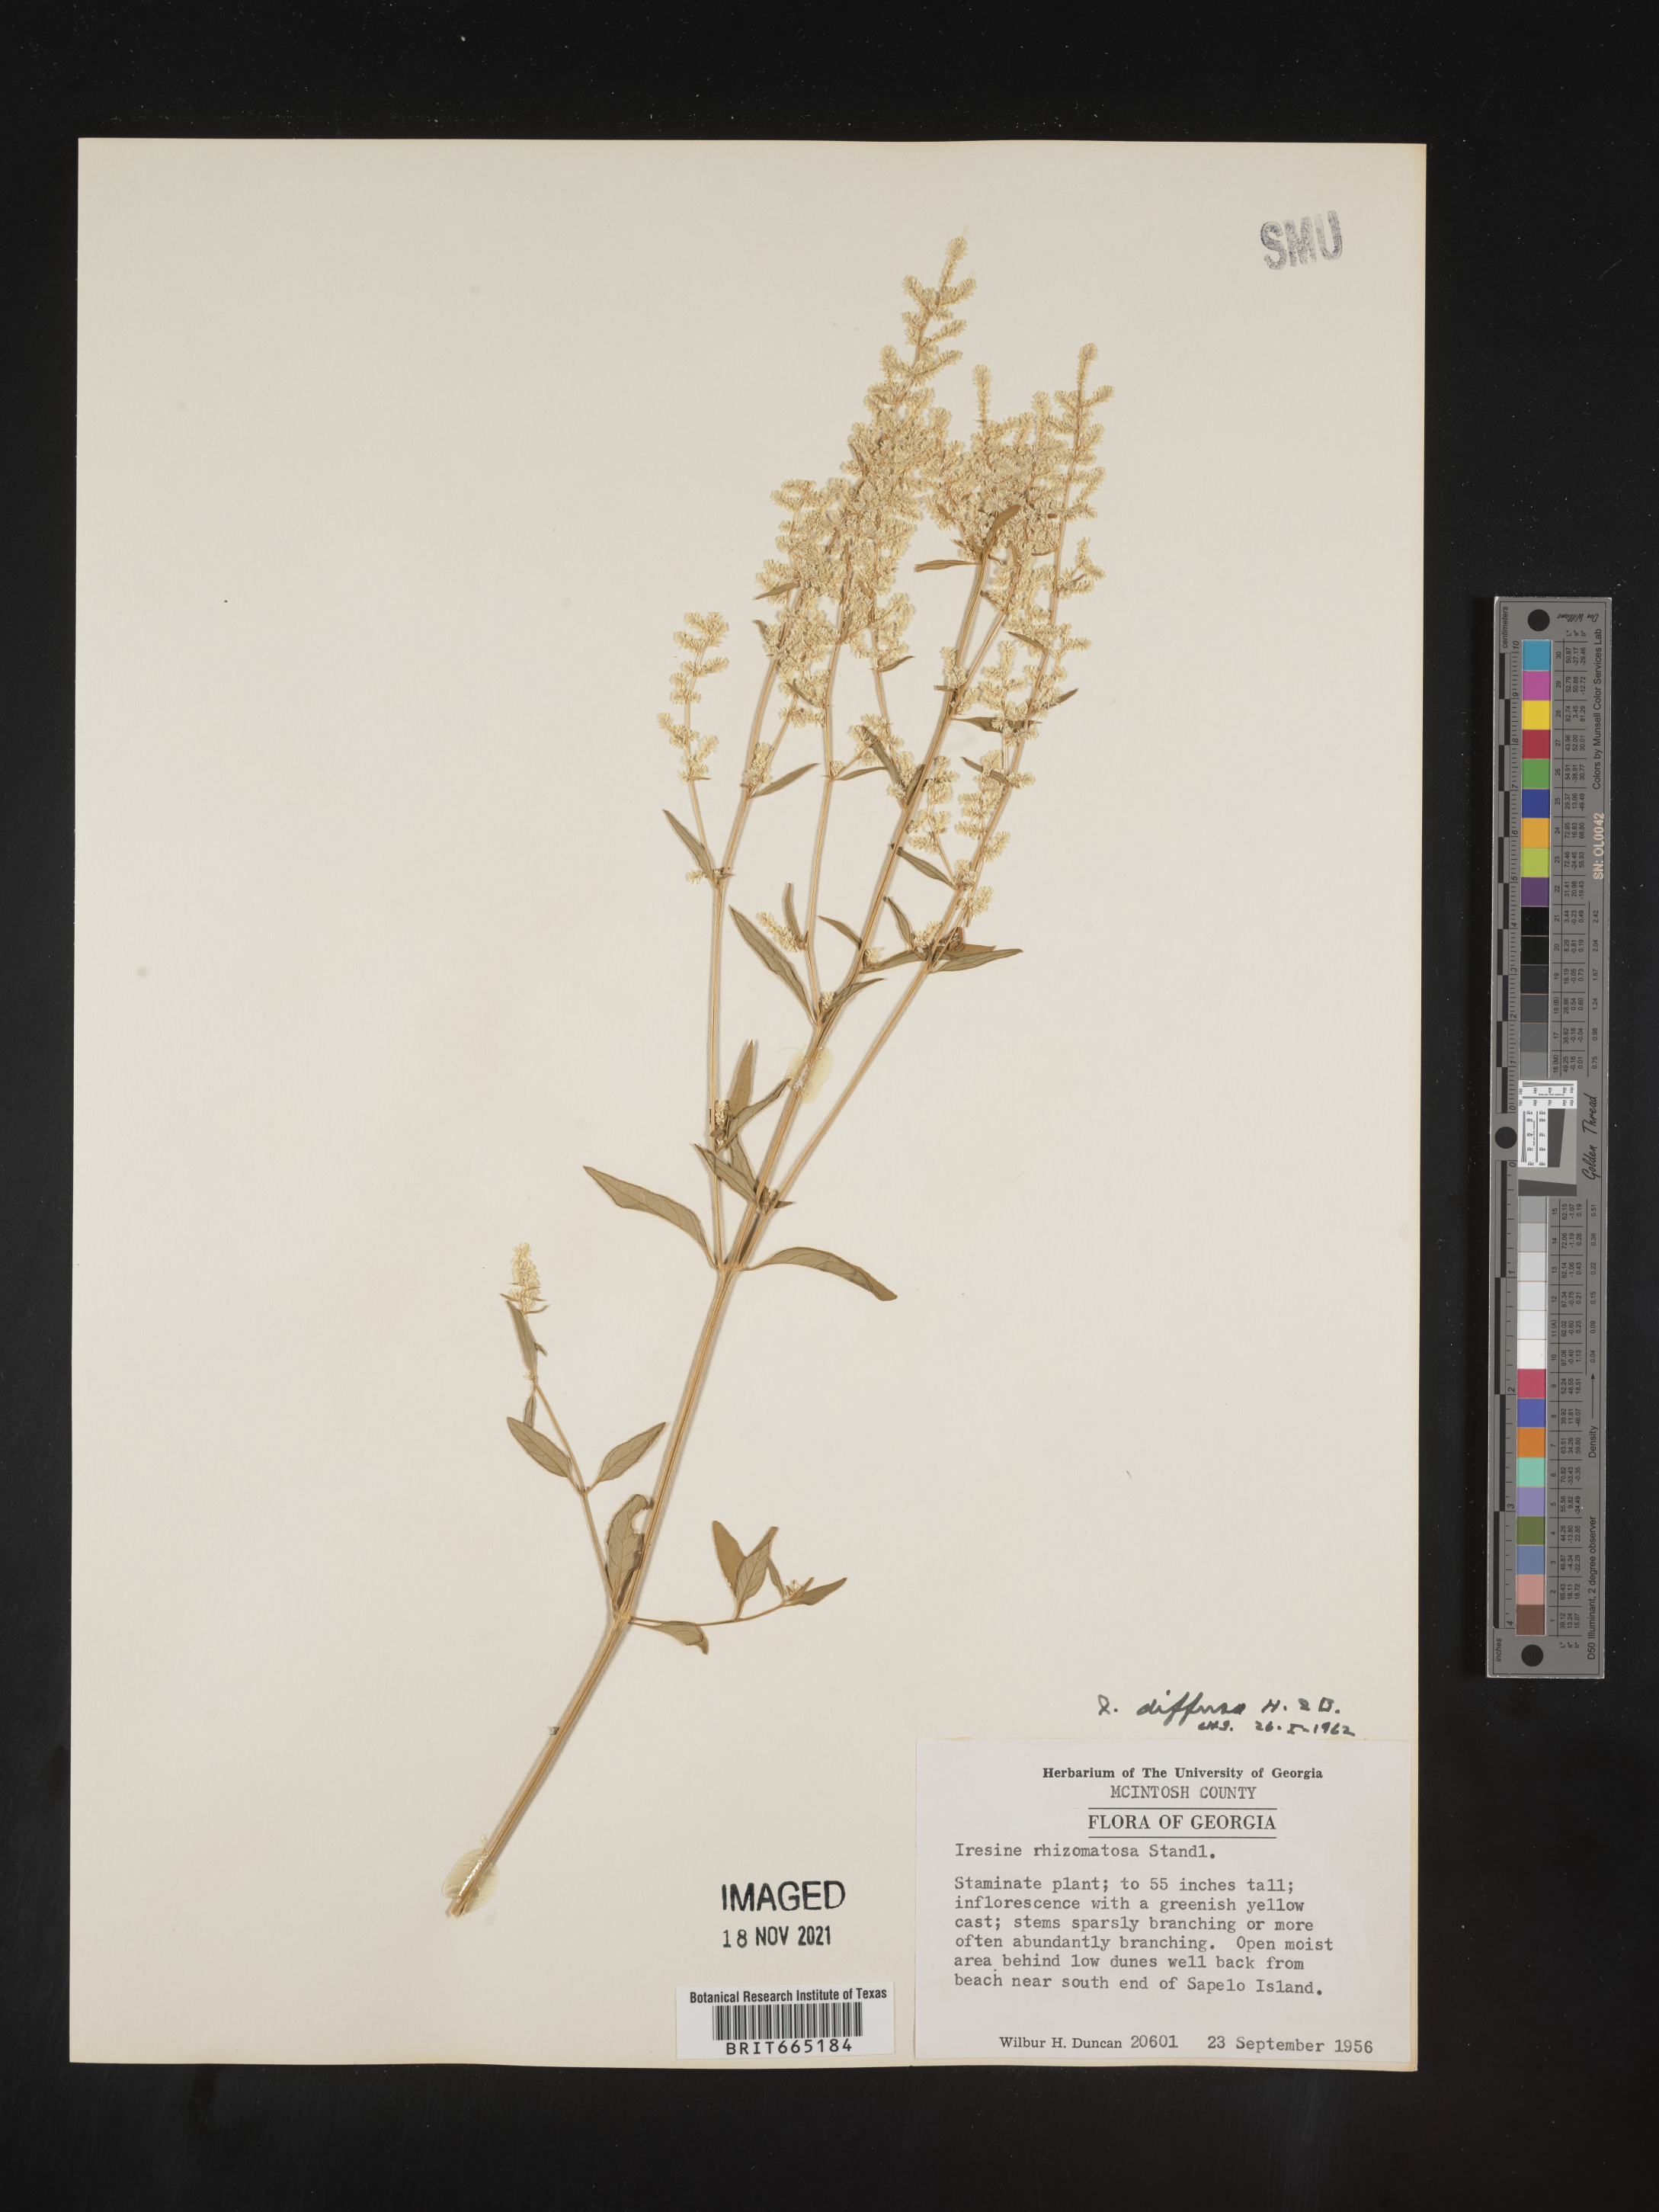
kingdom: Plantae
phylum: Tracheophyta
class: Magnoliopsida
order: Caryophyllales
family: Amaranthaceae
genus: Iresine
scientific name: Iresine rhizomatosa
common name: Juda's-bush
